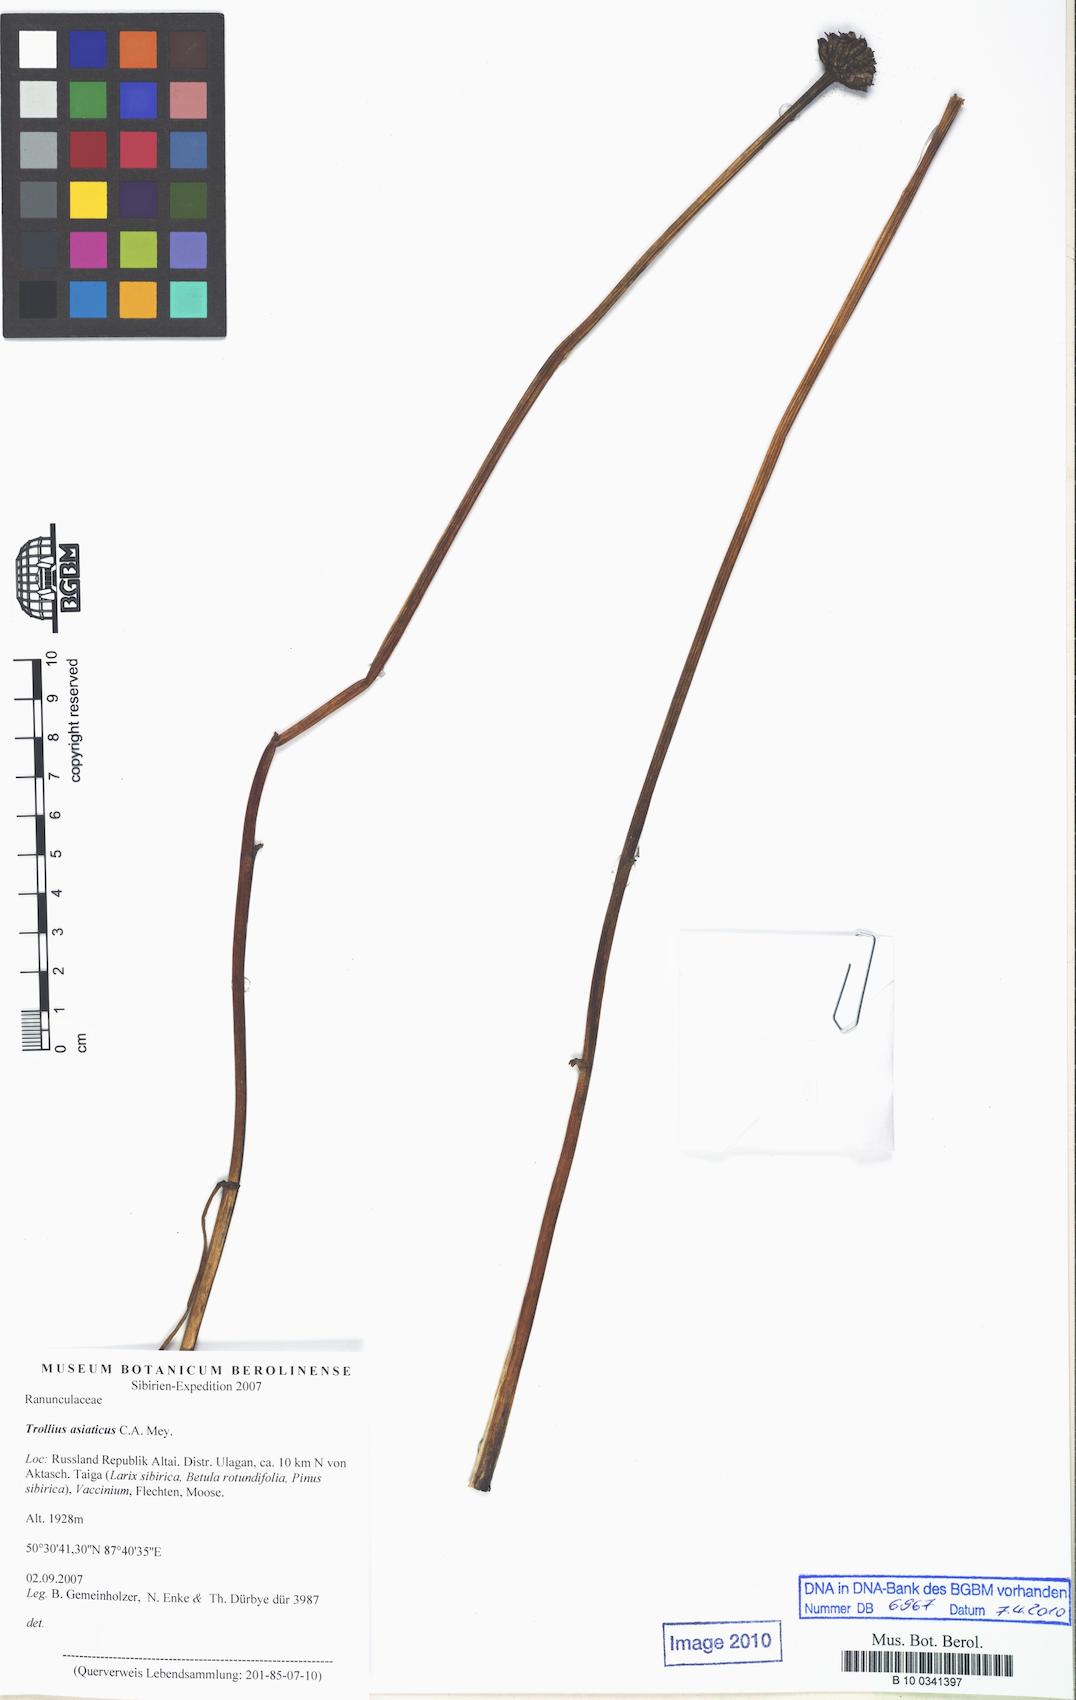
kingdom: Plantae
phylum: Tracheophyta
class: Magnoliopsida
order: Ranunculales
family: Ranunculaceae
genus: Trollius
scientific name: Trollius asiaticus
